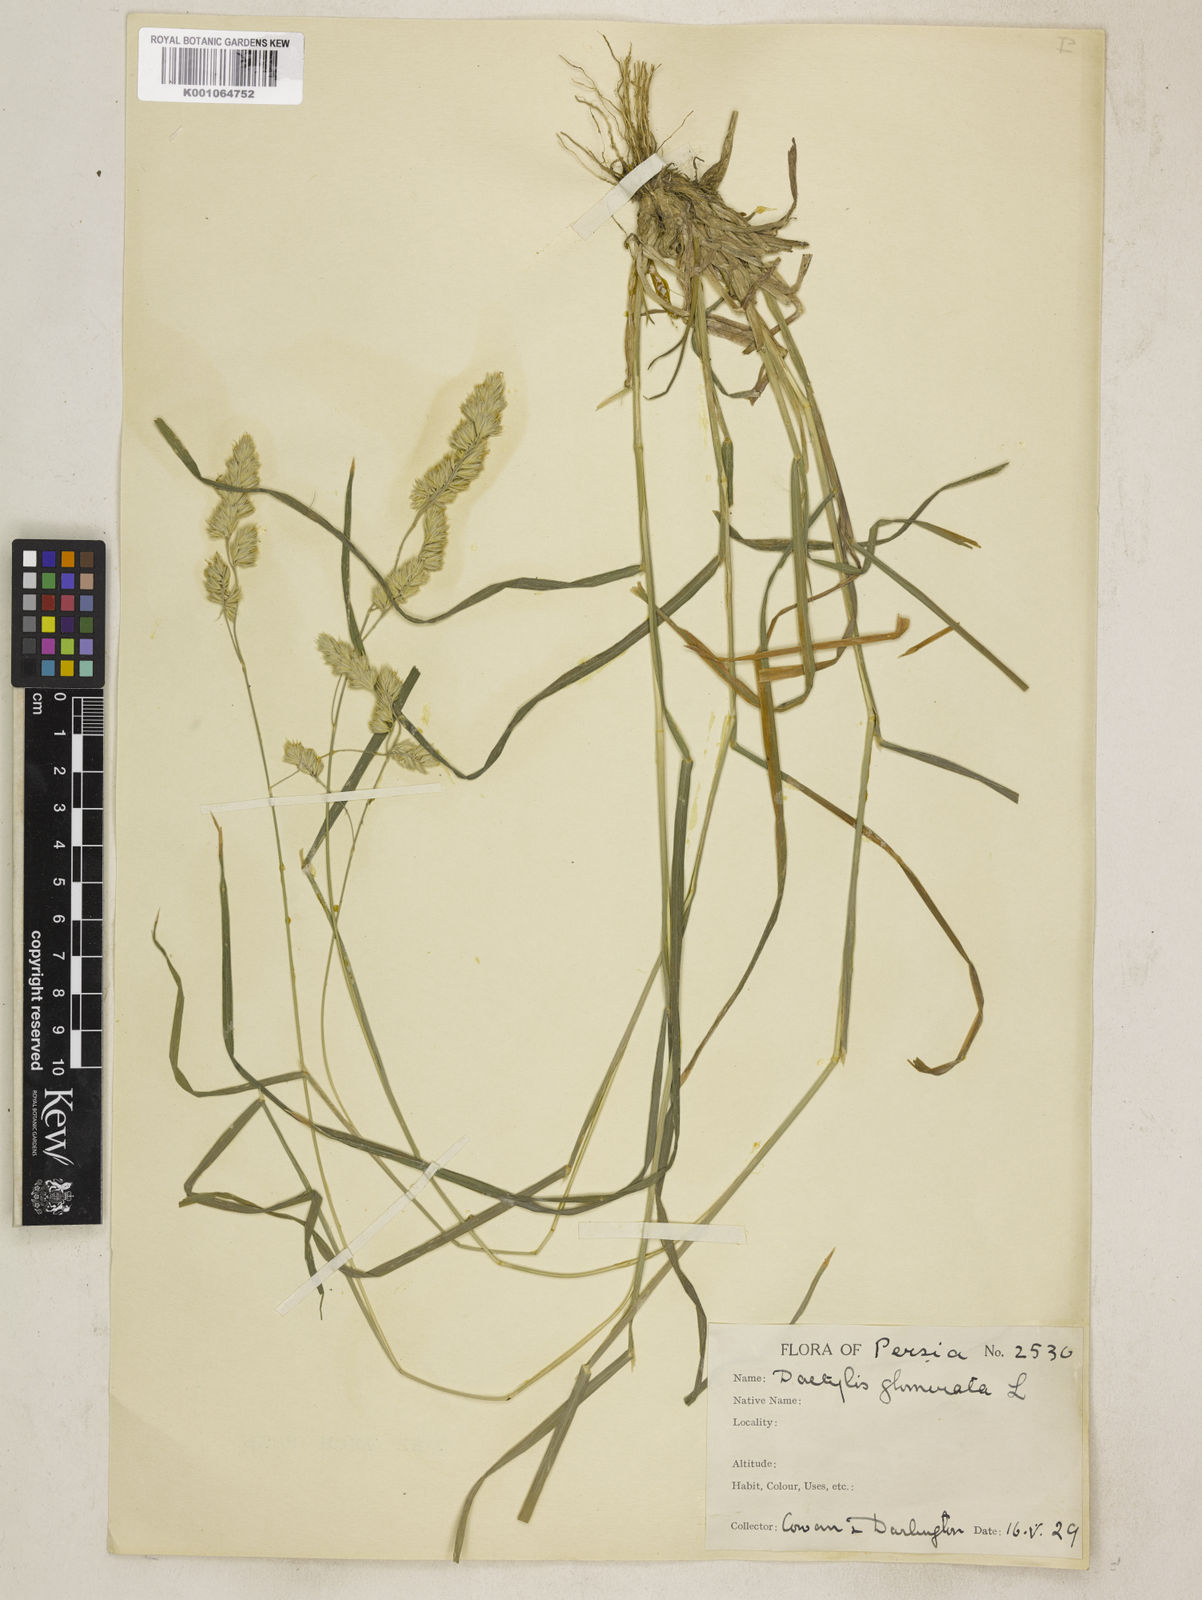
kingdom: Plantae
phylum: Tracheophyta
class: Liliopsida
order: Poales
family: Poaceae
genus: Dactylis
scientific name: Dactylis glomerata
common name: Orchardgrass
